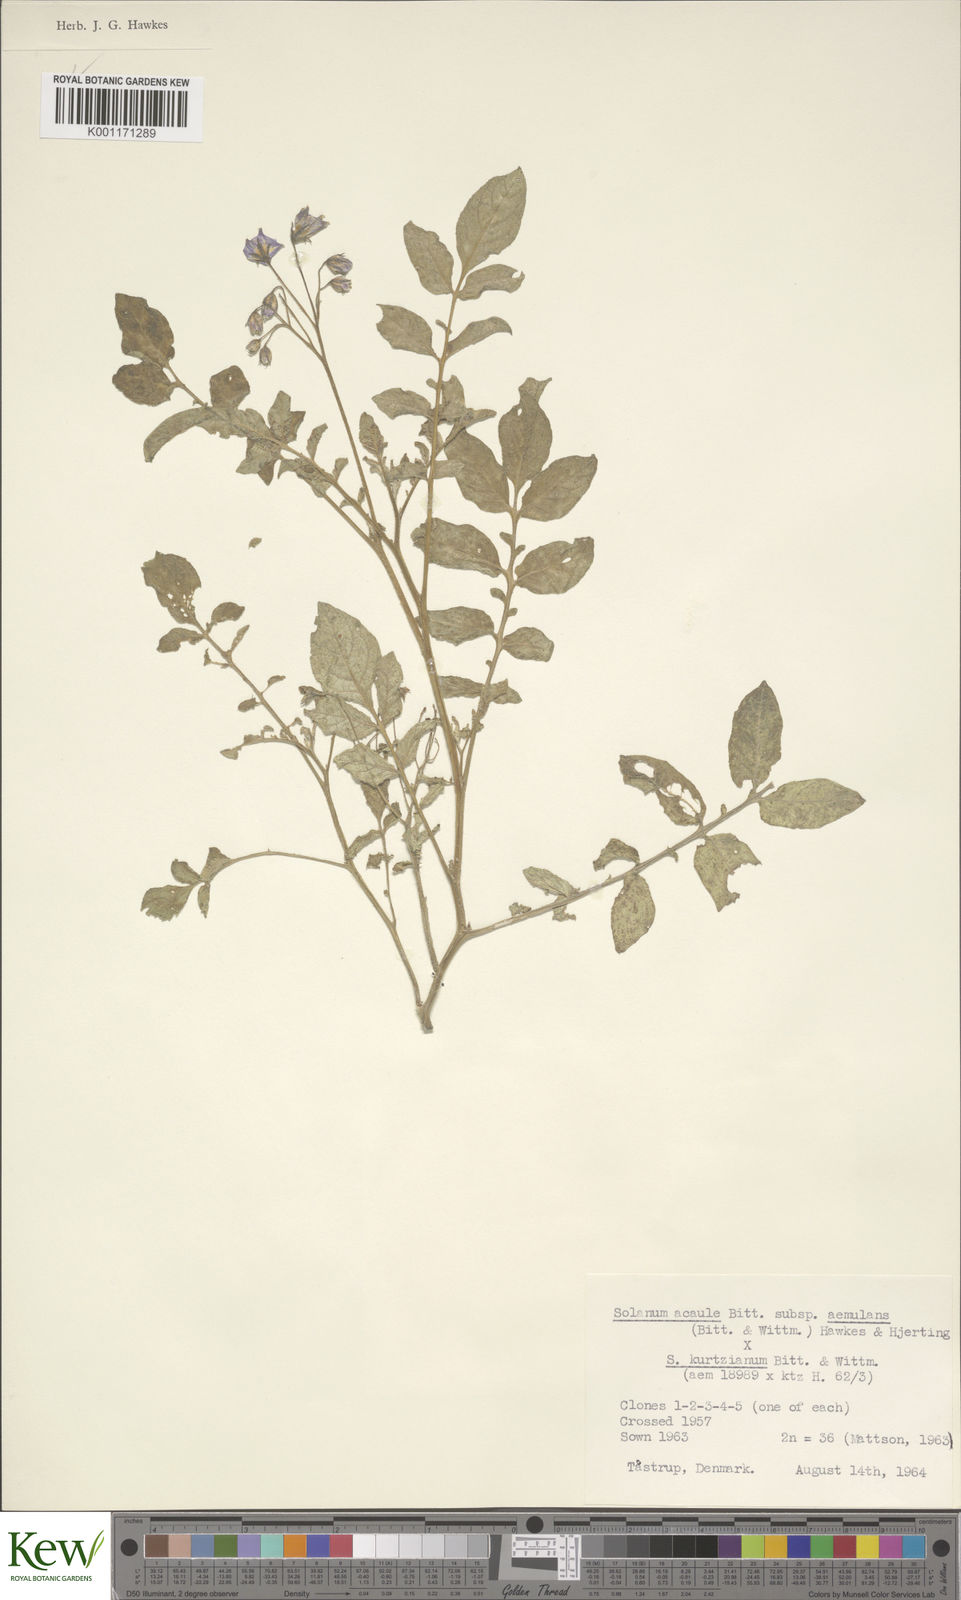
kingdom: Plantae
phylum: Tracheophyta
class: Magnoliopsida
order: Solanales
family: Solanaceae
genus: Solanum
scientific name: Solanum aemulans
